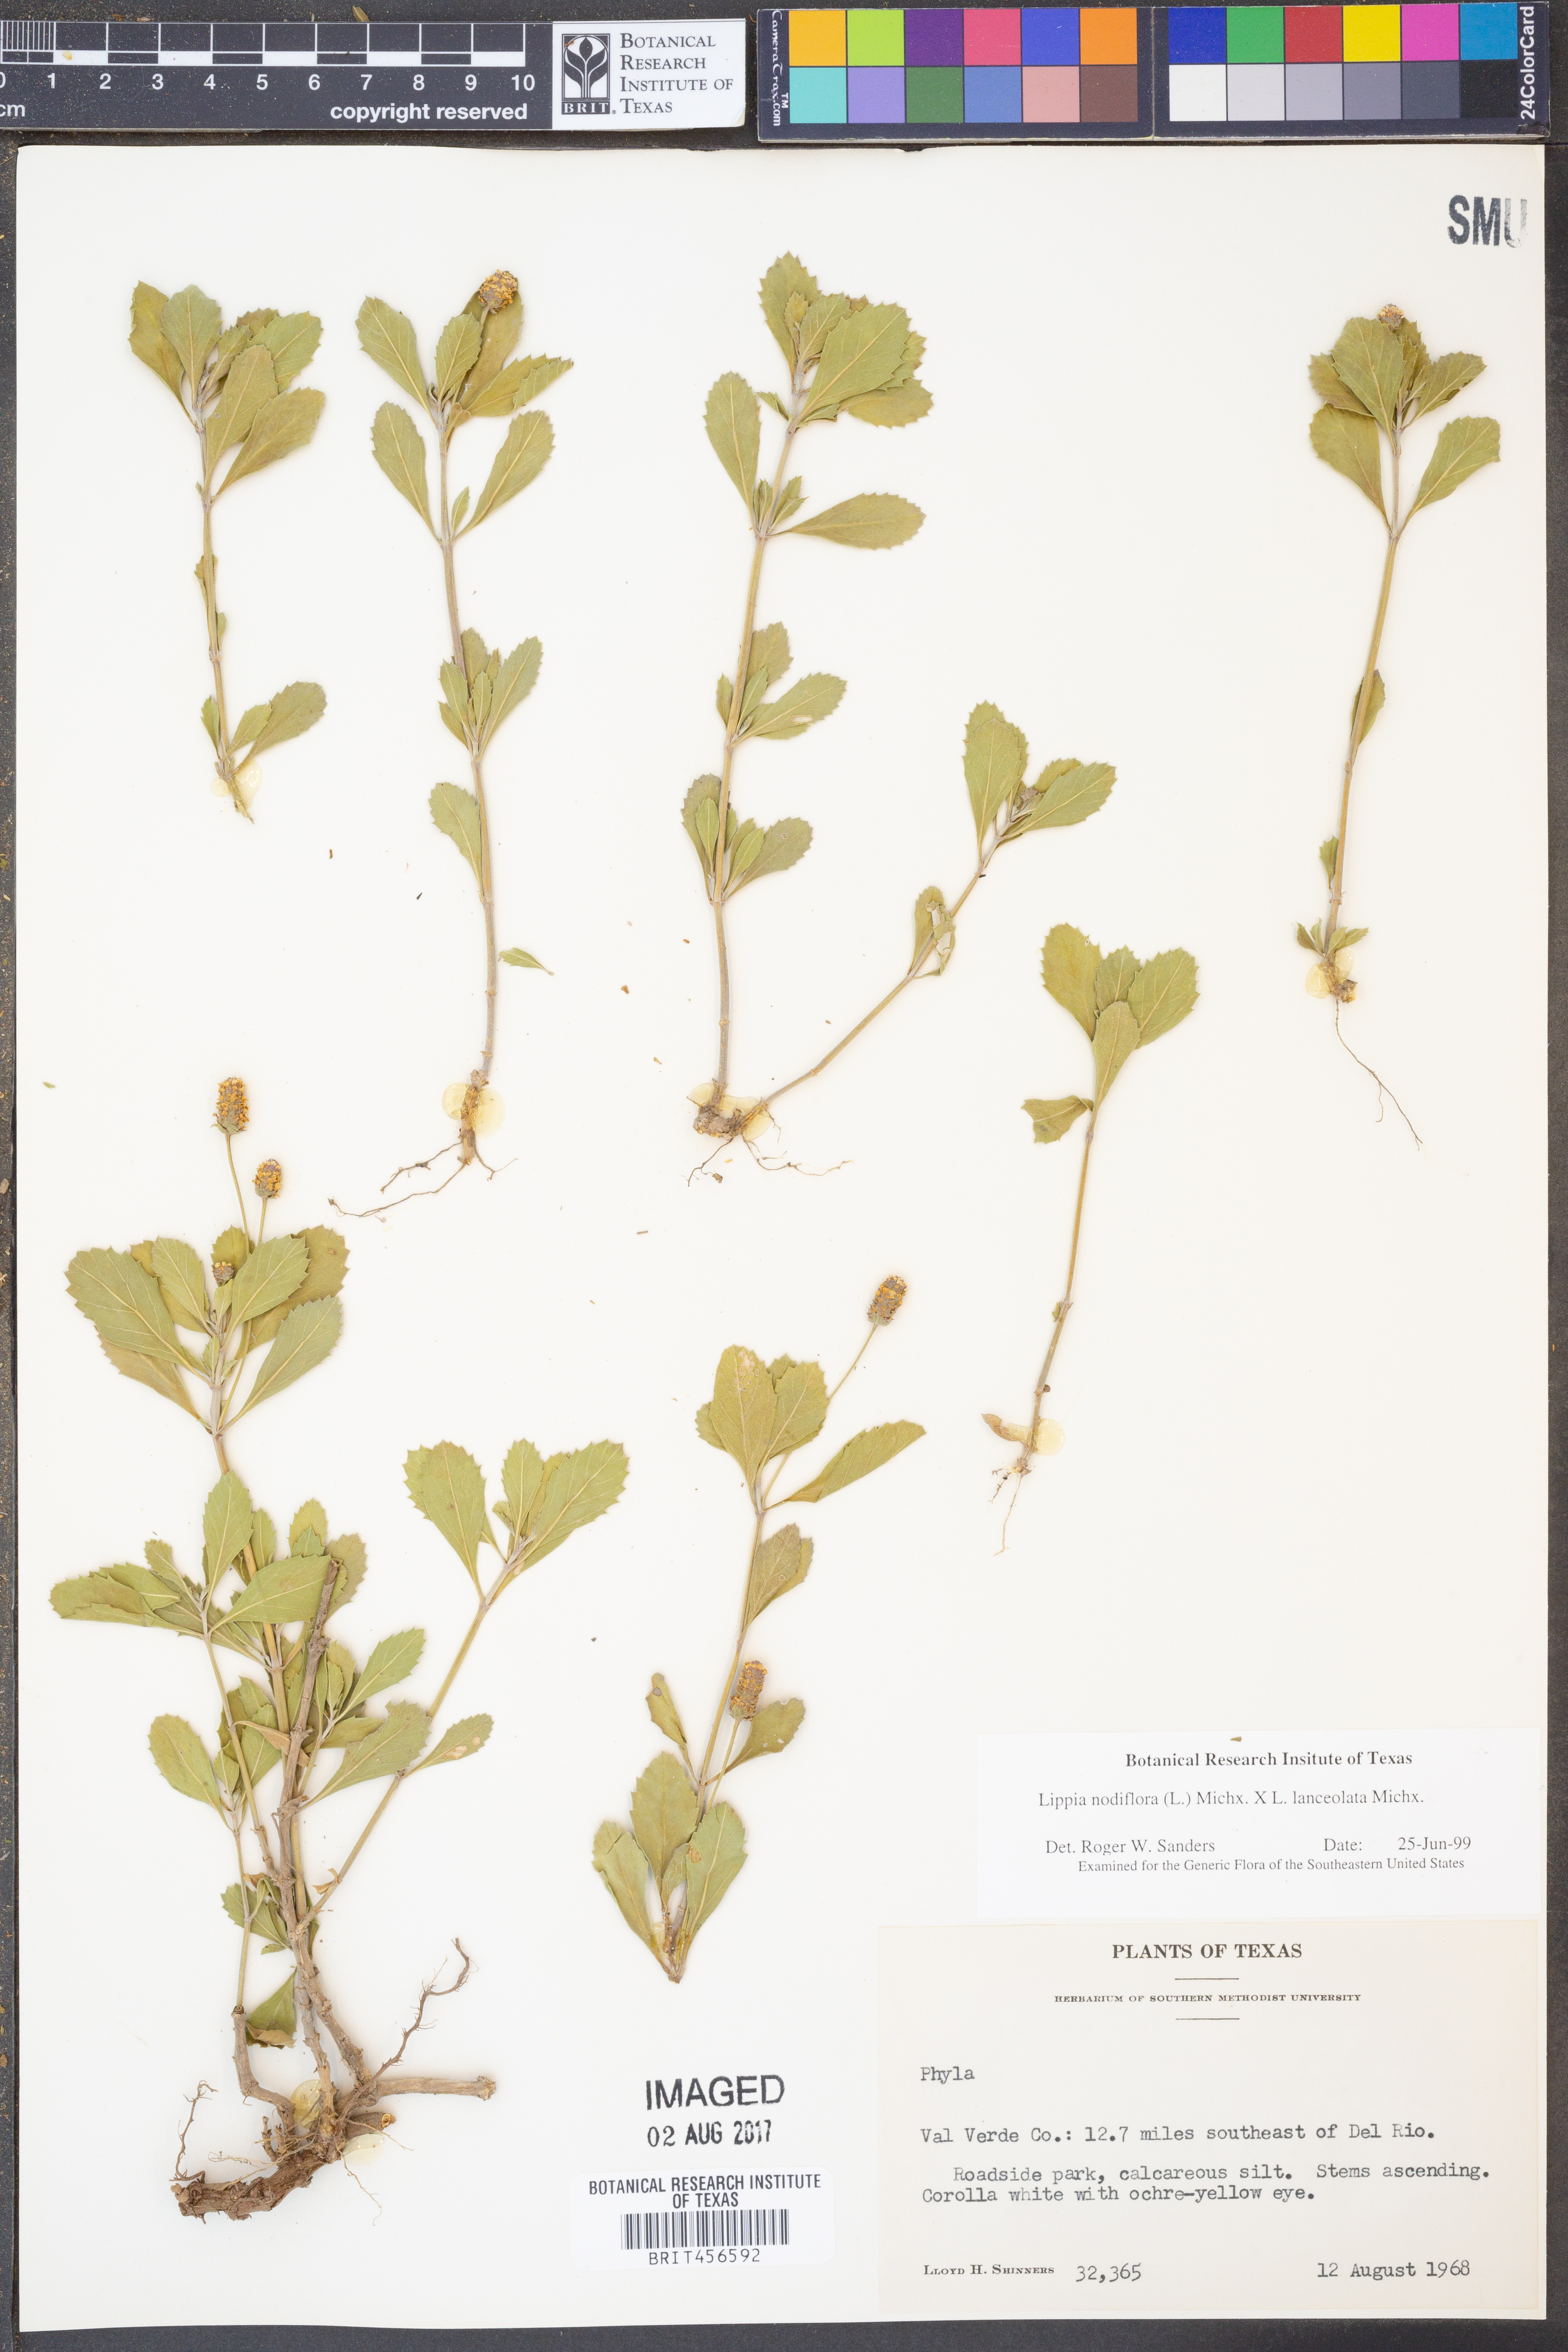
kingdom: Plantae
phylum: Tracheophyta
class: Magnoliopsida
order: Lamiales
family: Verbenaceae
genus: Phyla
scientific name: Phyla nodiflora
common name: Frogfruit
